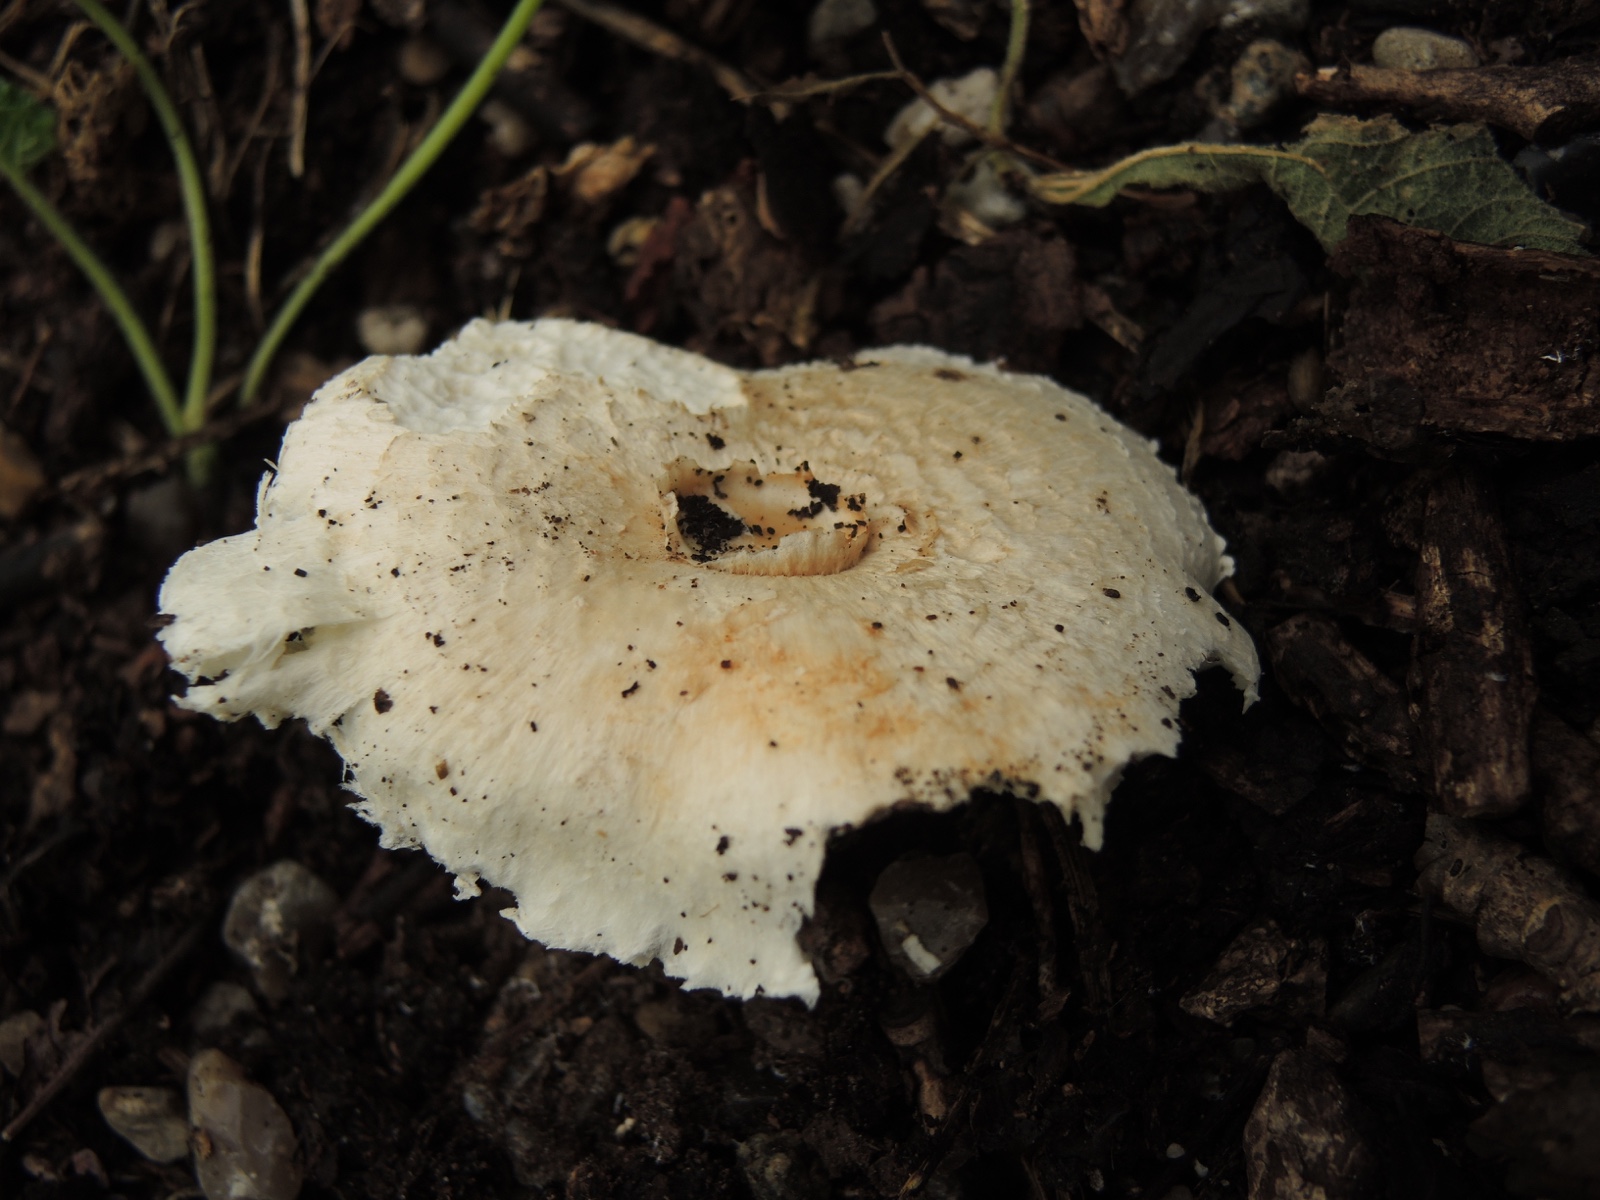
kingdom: Fungi
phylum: Basidiomycota
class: Agaricomycetes
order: Agaricales
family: Agaricaceae
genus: Leucoagaricus
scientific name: Leucoagaricus wichanskyi
